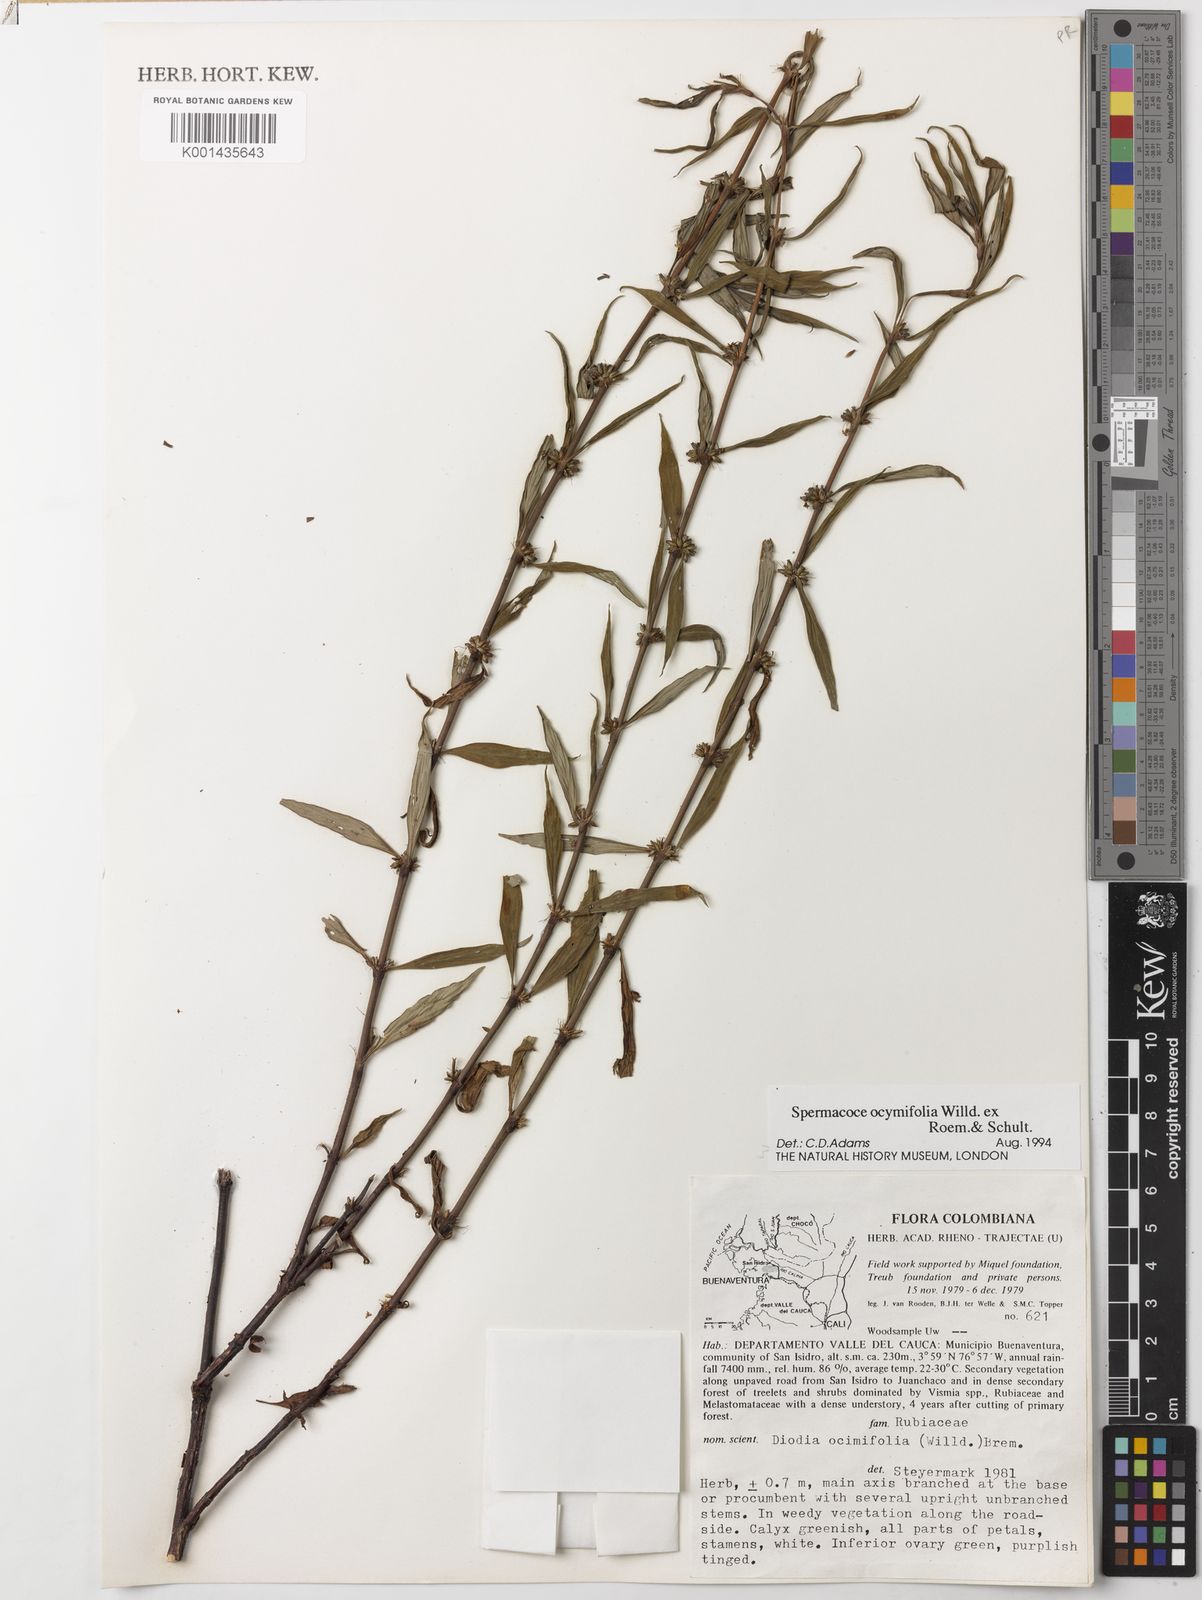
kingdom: Plantae
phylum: Tracheophyta
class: Magnoliopsida
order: Gentianales
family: Rubiaceae
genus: Spermacoce
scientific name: Spermacoce ocymifolia
